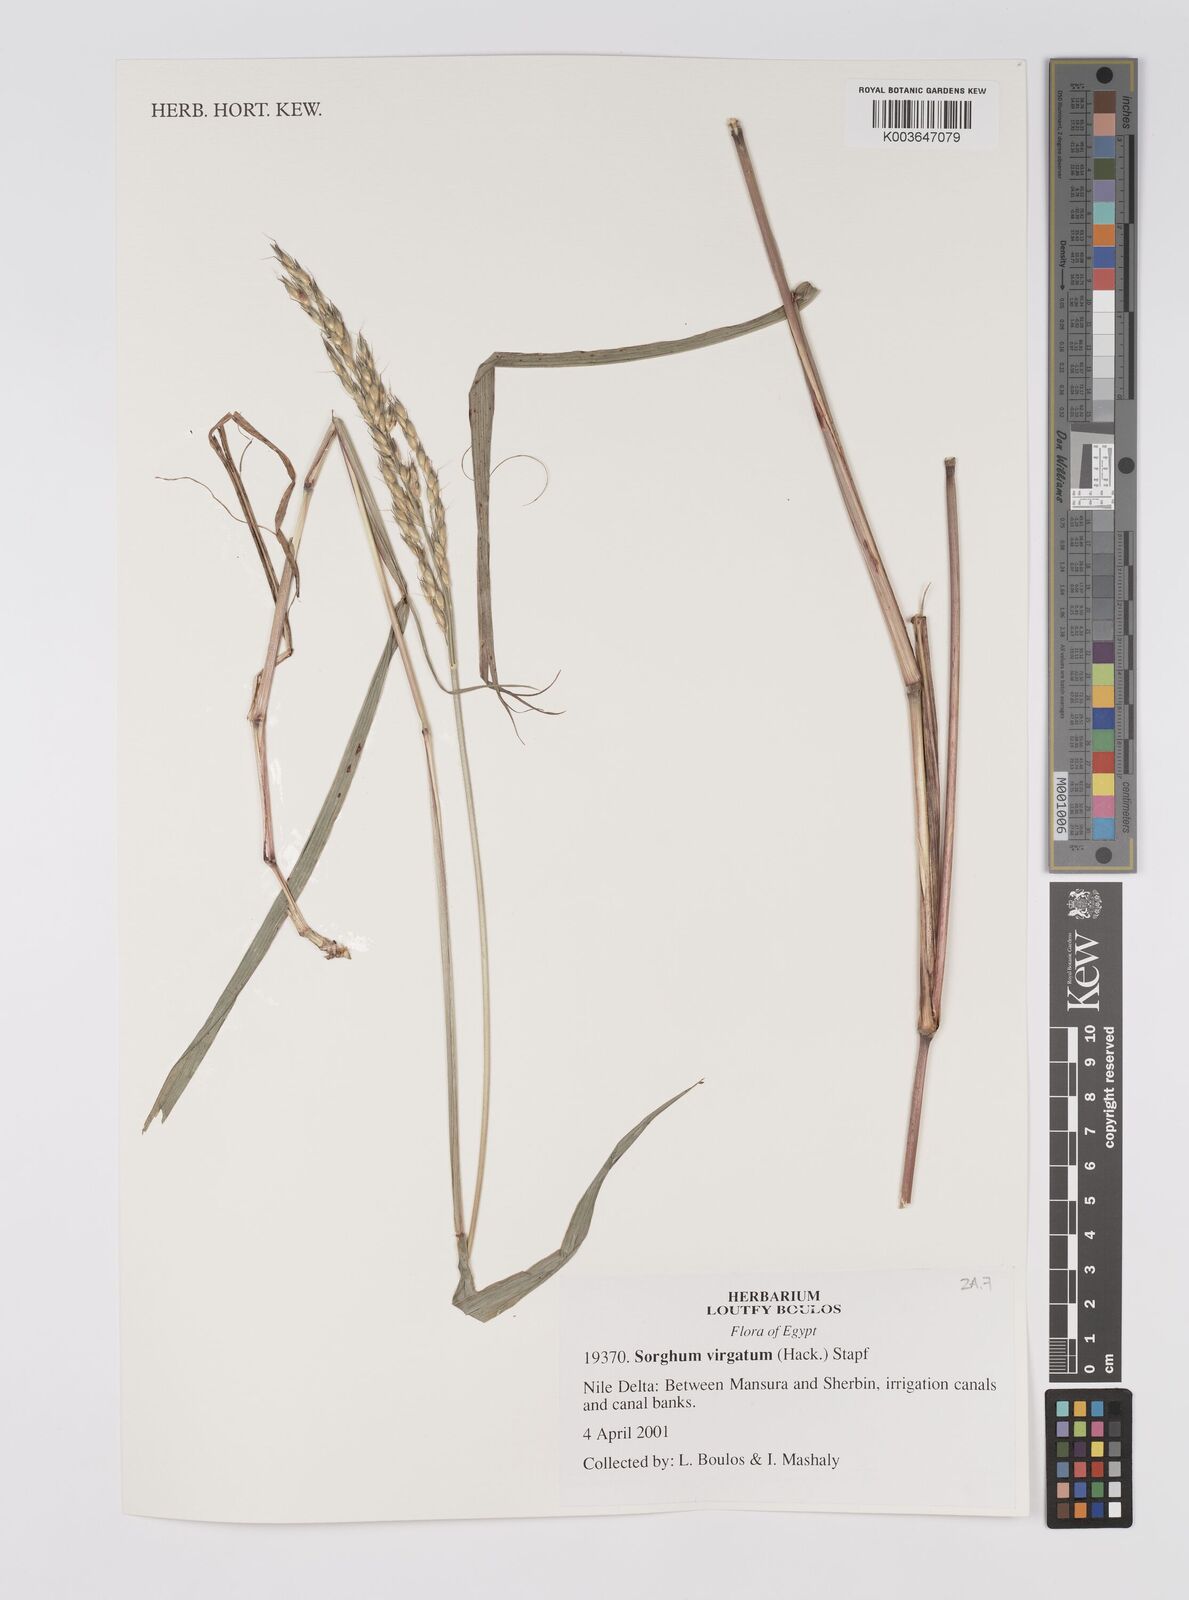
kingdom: Plantae
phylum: Tracheophyta
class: Liliopsida
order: Poales
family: Poaceae
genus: Sorghum
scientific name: Sorghum virgatum
